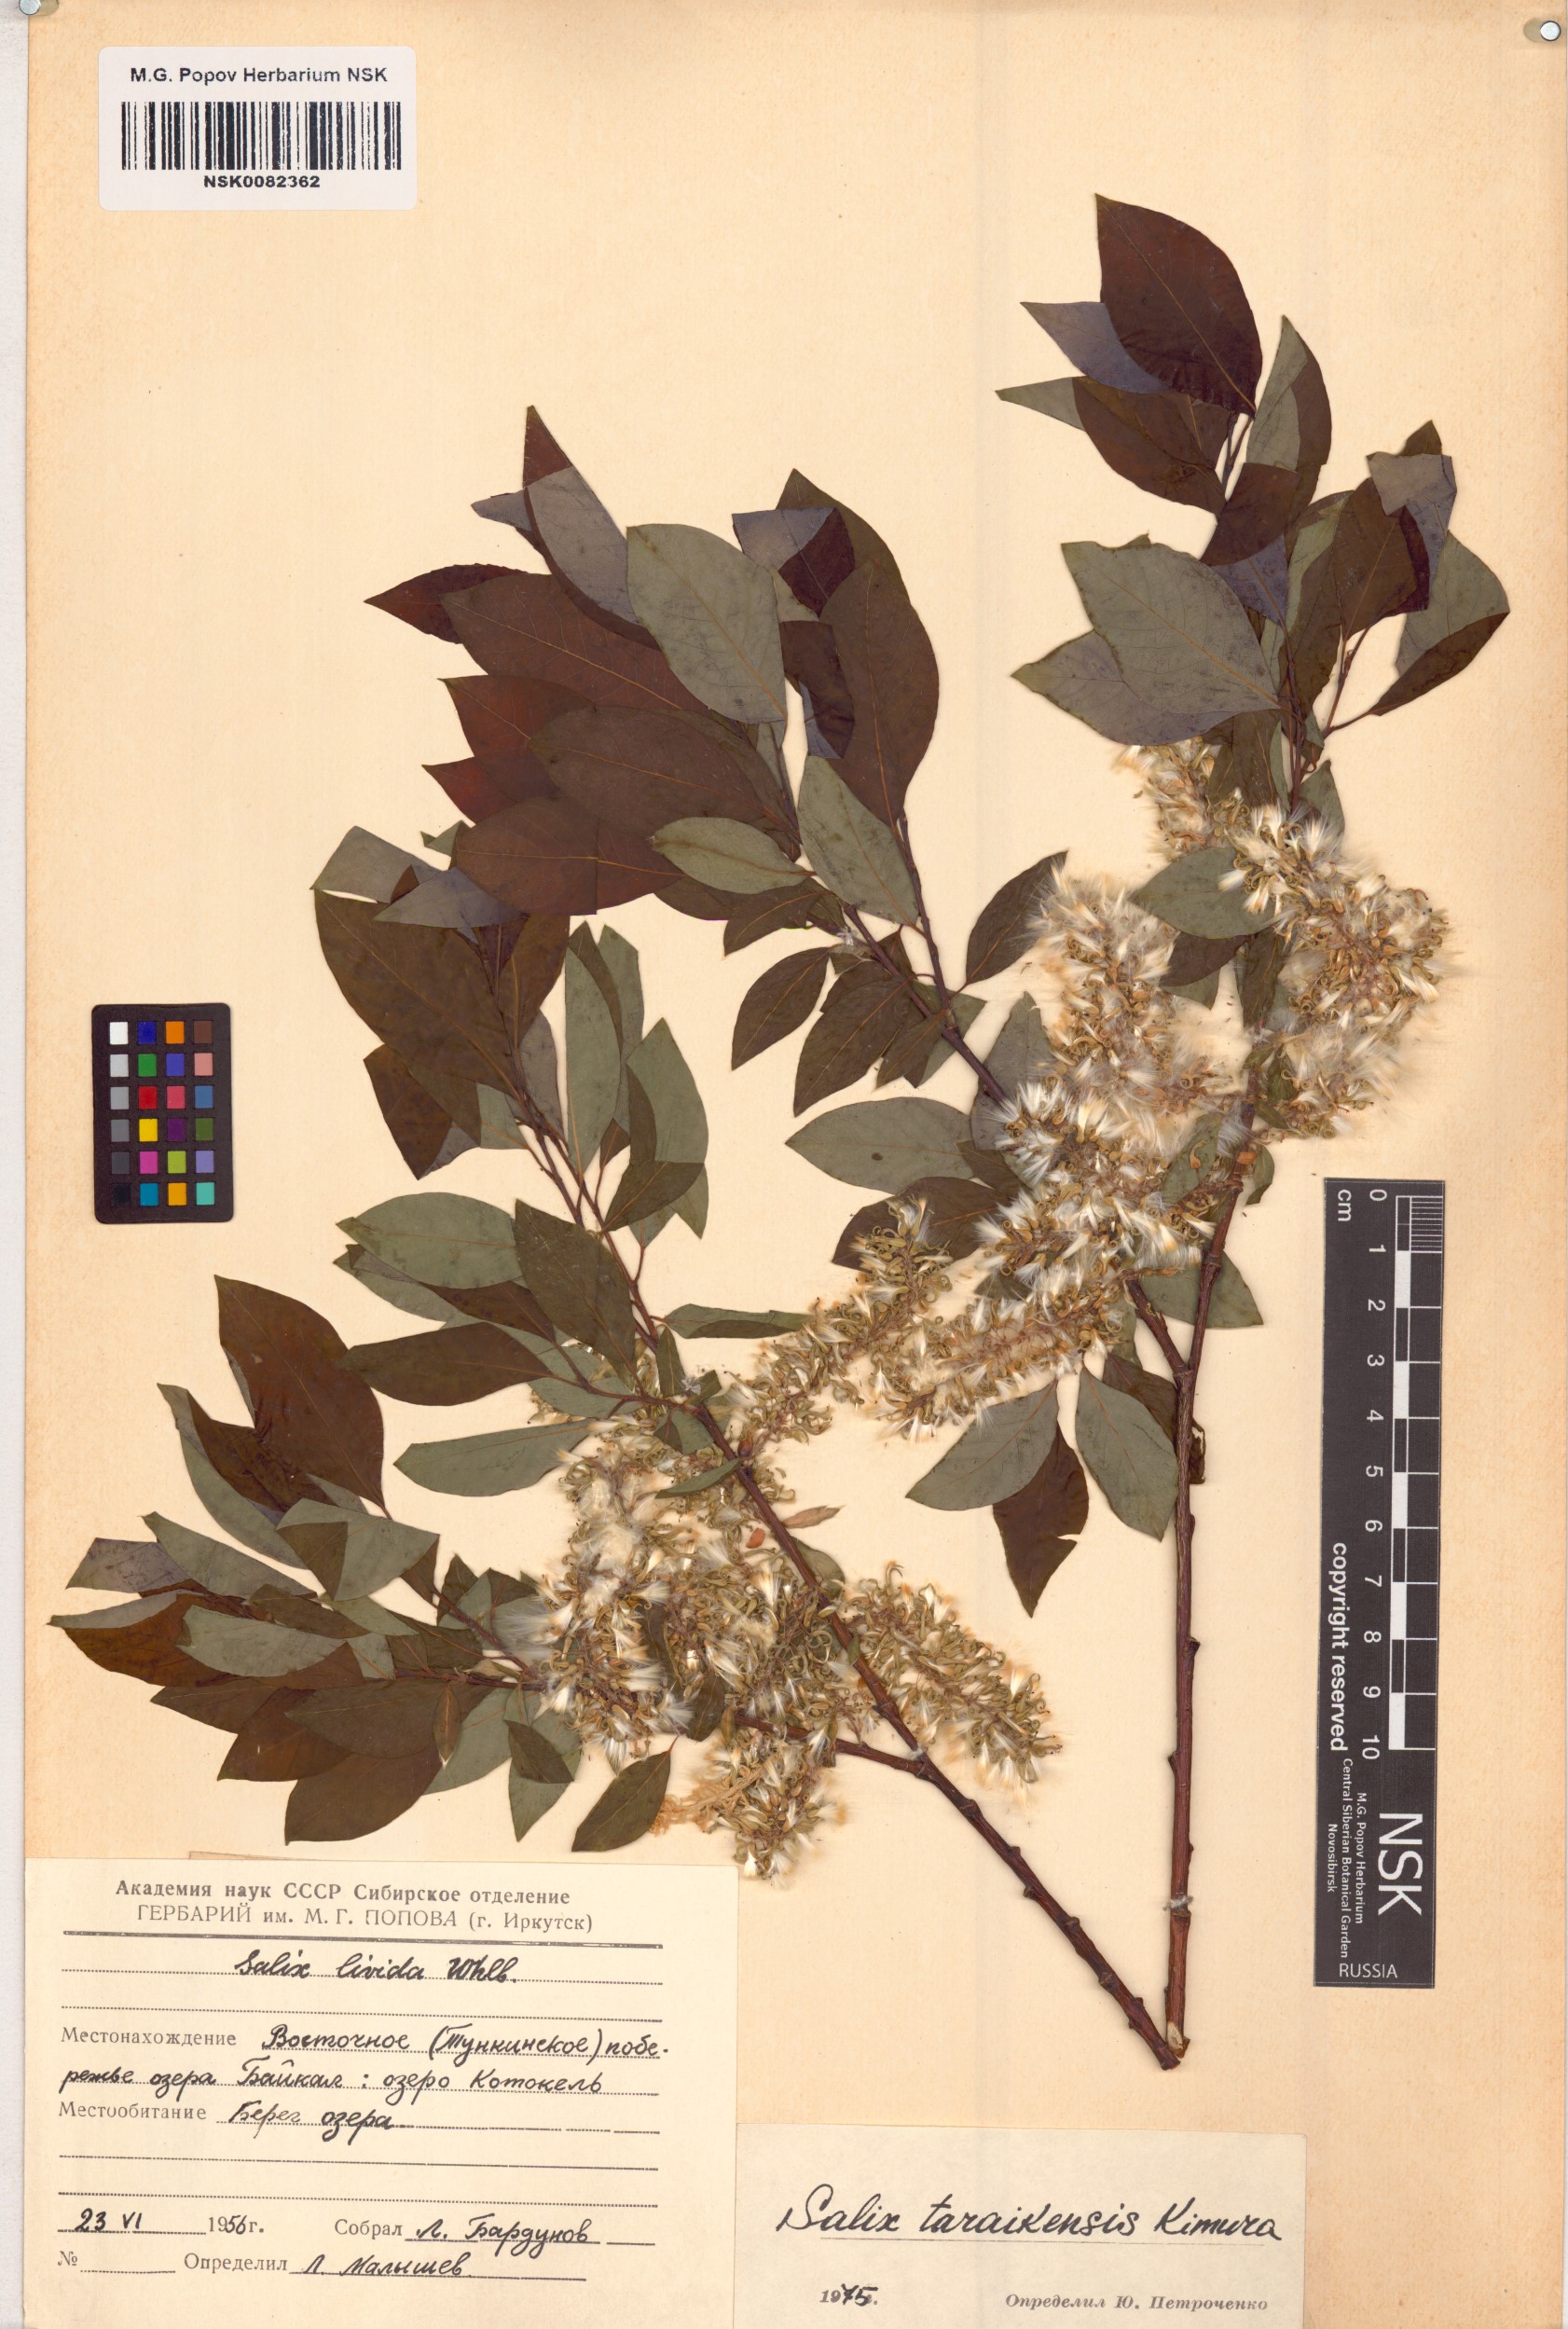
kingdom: Plantae
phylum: Tracheophyta
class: Magnoliopsida
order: Malpighiales
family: Salicaceae
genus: Salix
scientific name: Salix taraikensis
